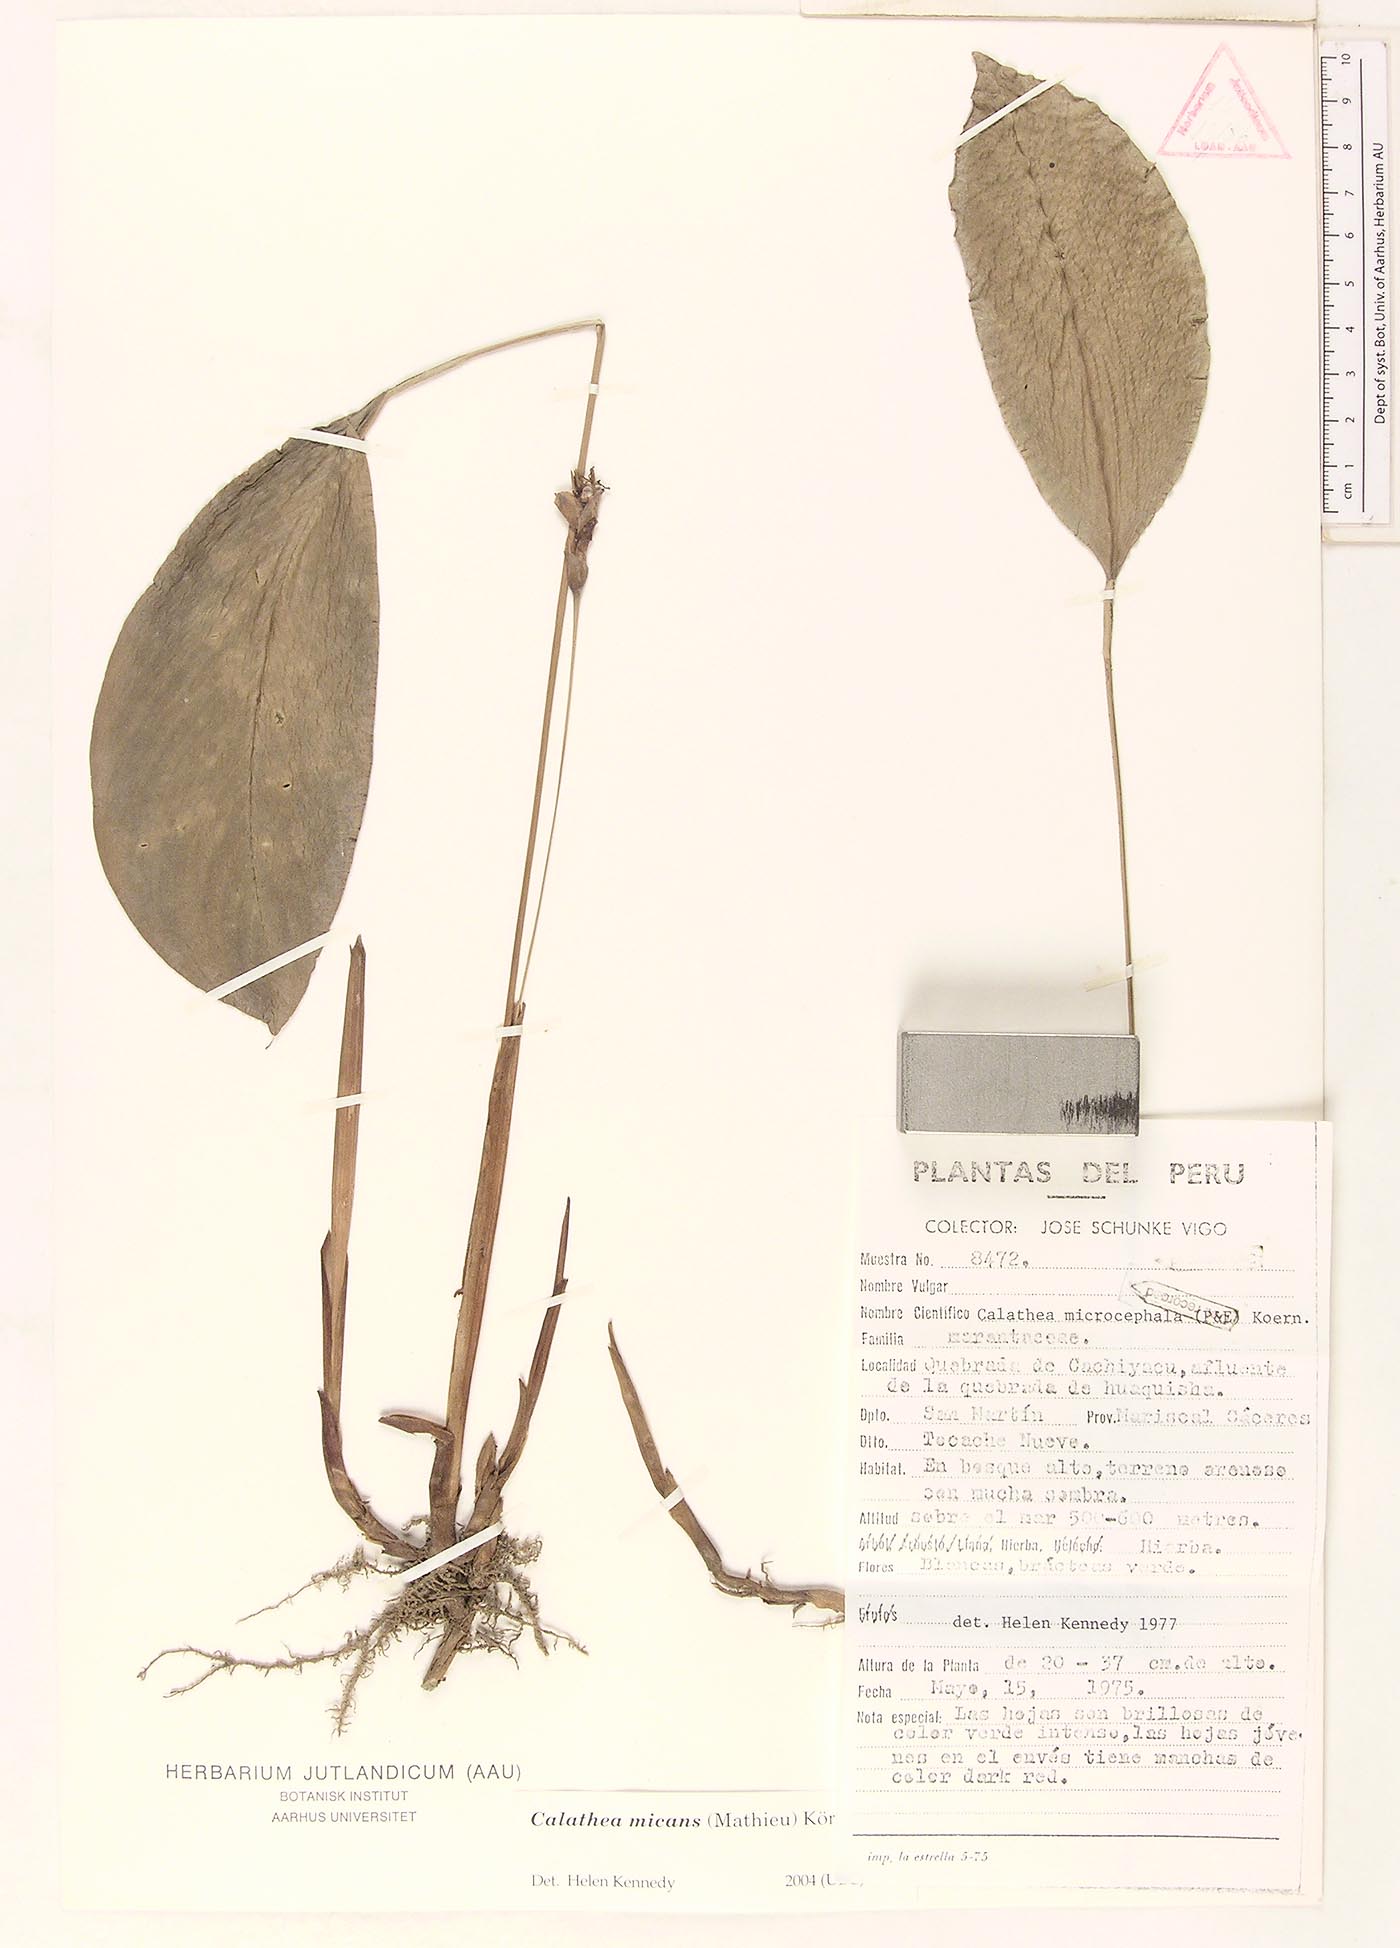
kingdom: Plantae
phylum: Tracheophyta
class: Liliopsida
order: Zingiberales
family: Marantaceae
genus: Goeppertia
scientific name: Goeppertia micans
